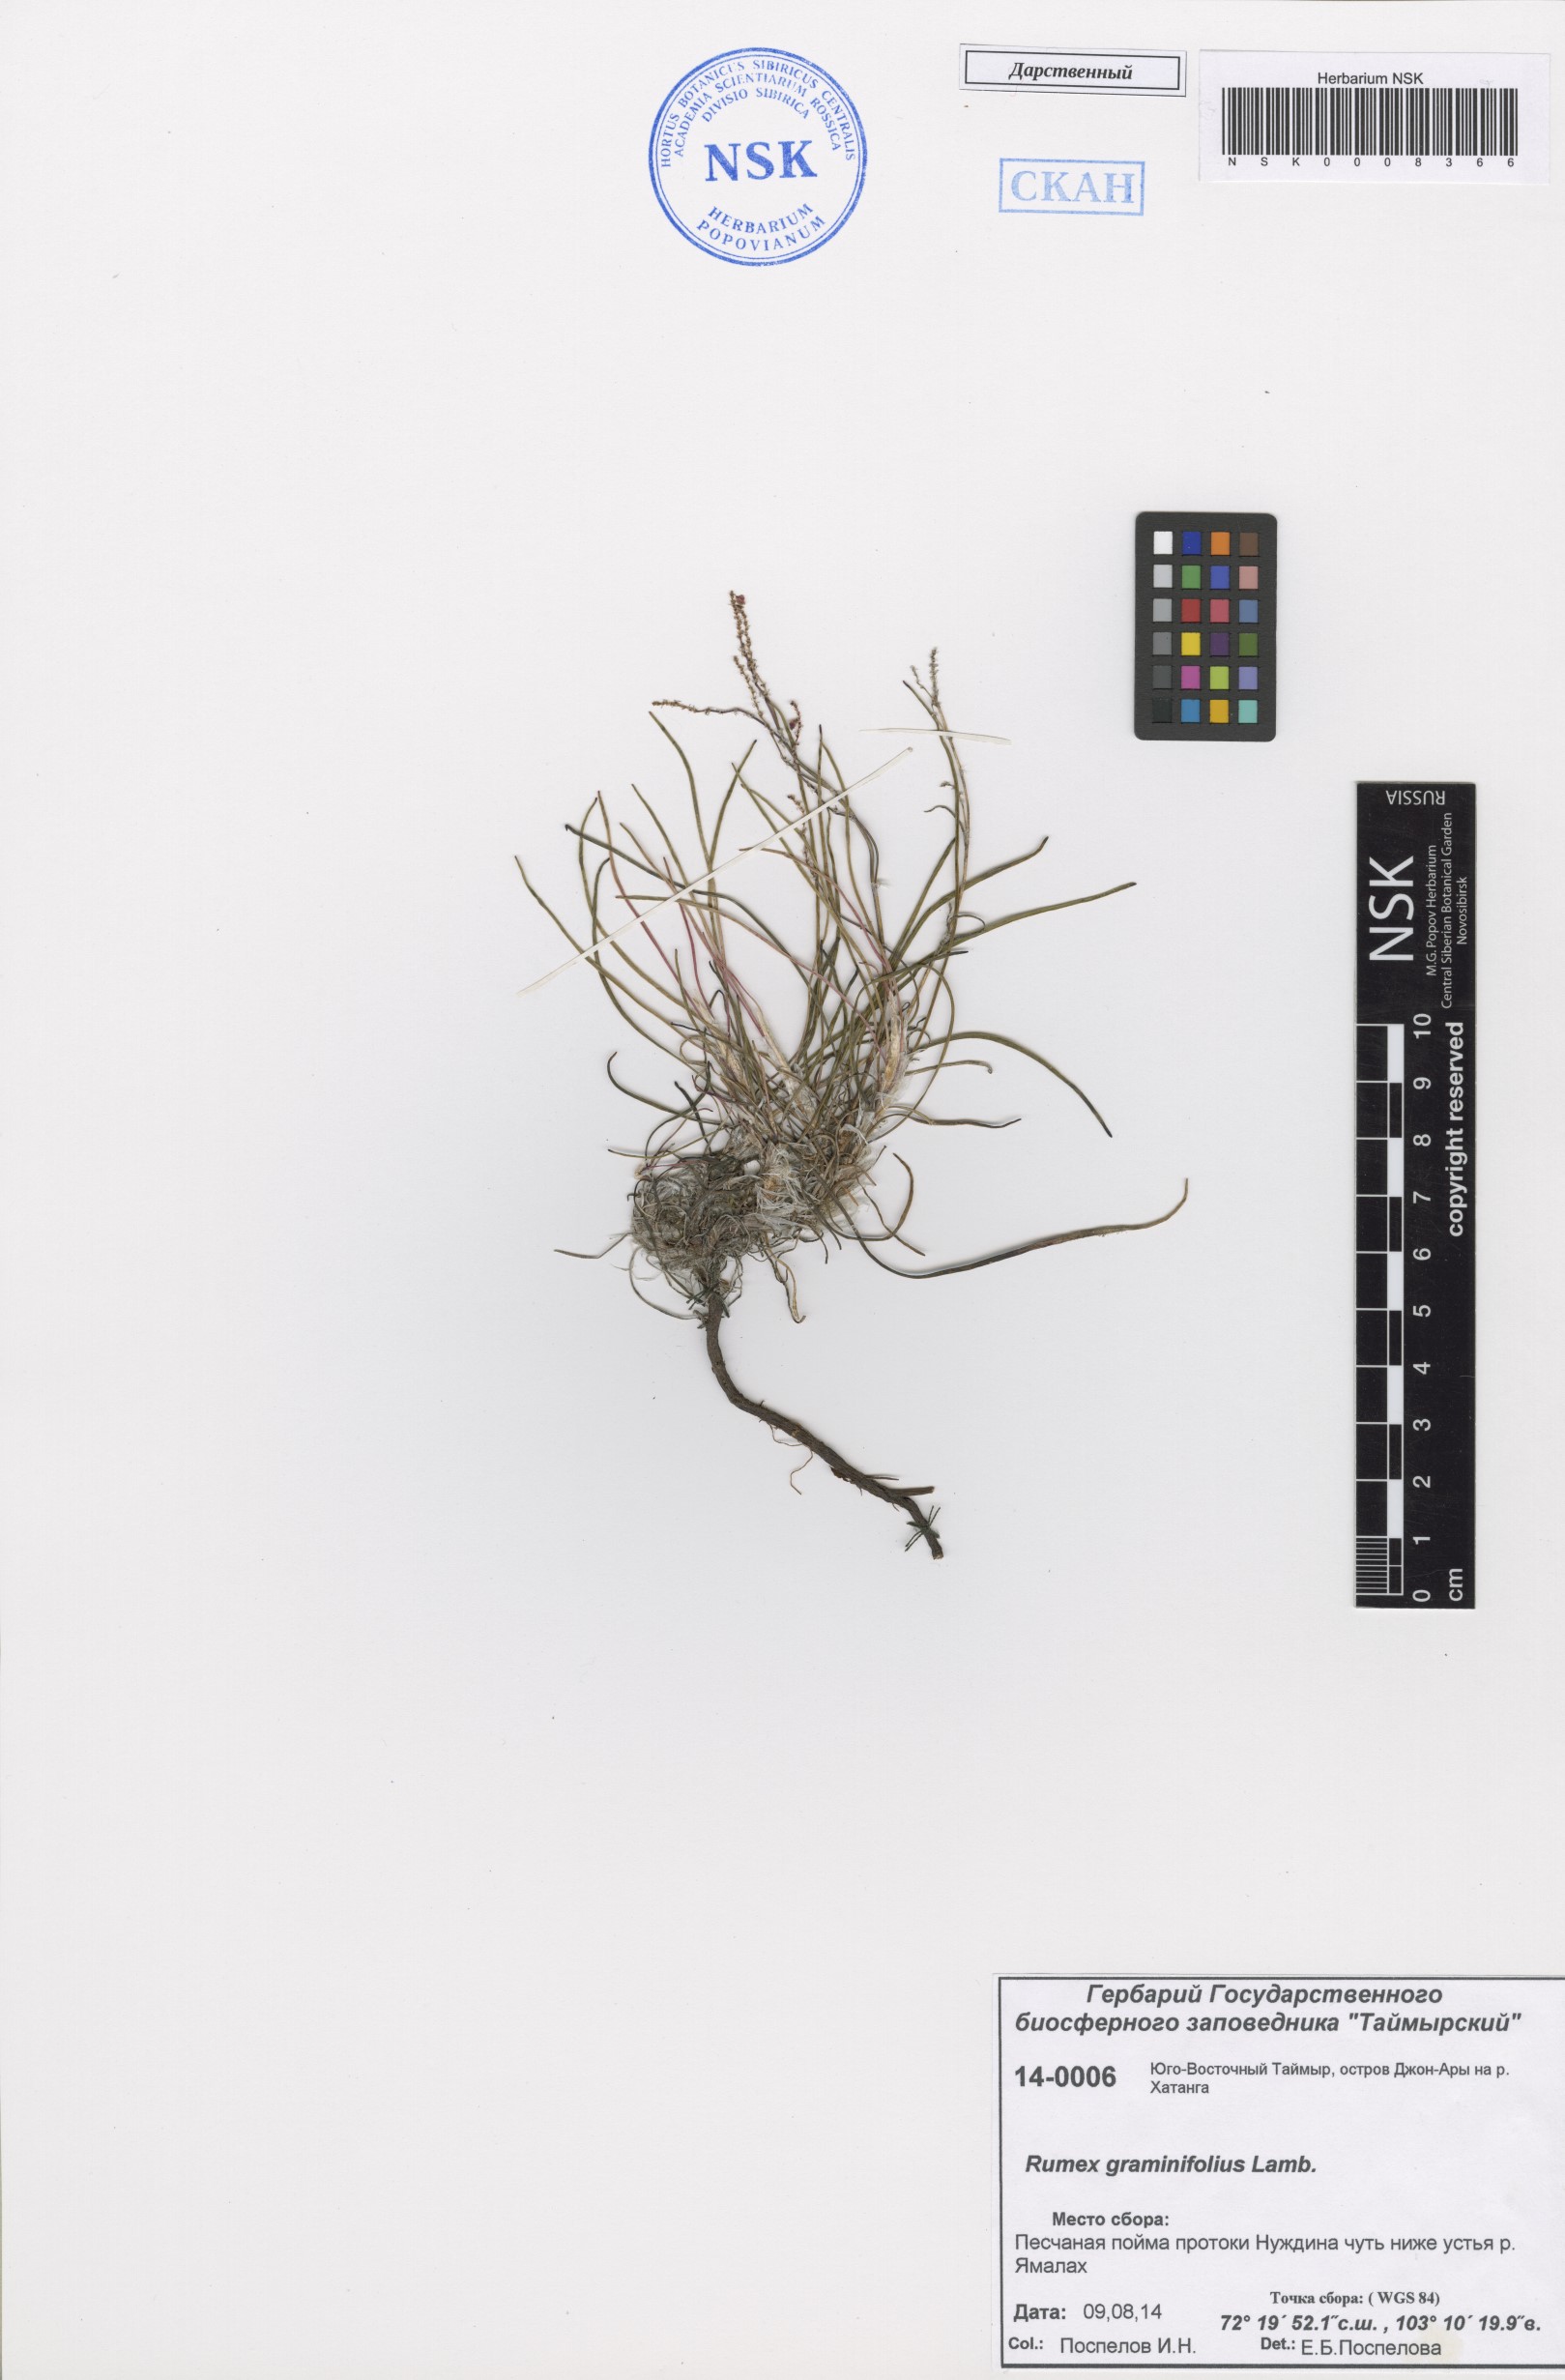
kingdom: Plantae
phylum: Tracheophyta
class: Magnoliopsida
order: Caryophyllales
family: Polygonaceae
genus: Rumex
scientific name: Rumex graminifolius
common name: Grass-leaved sorrel
